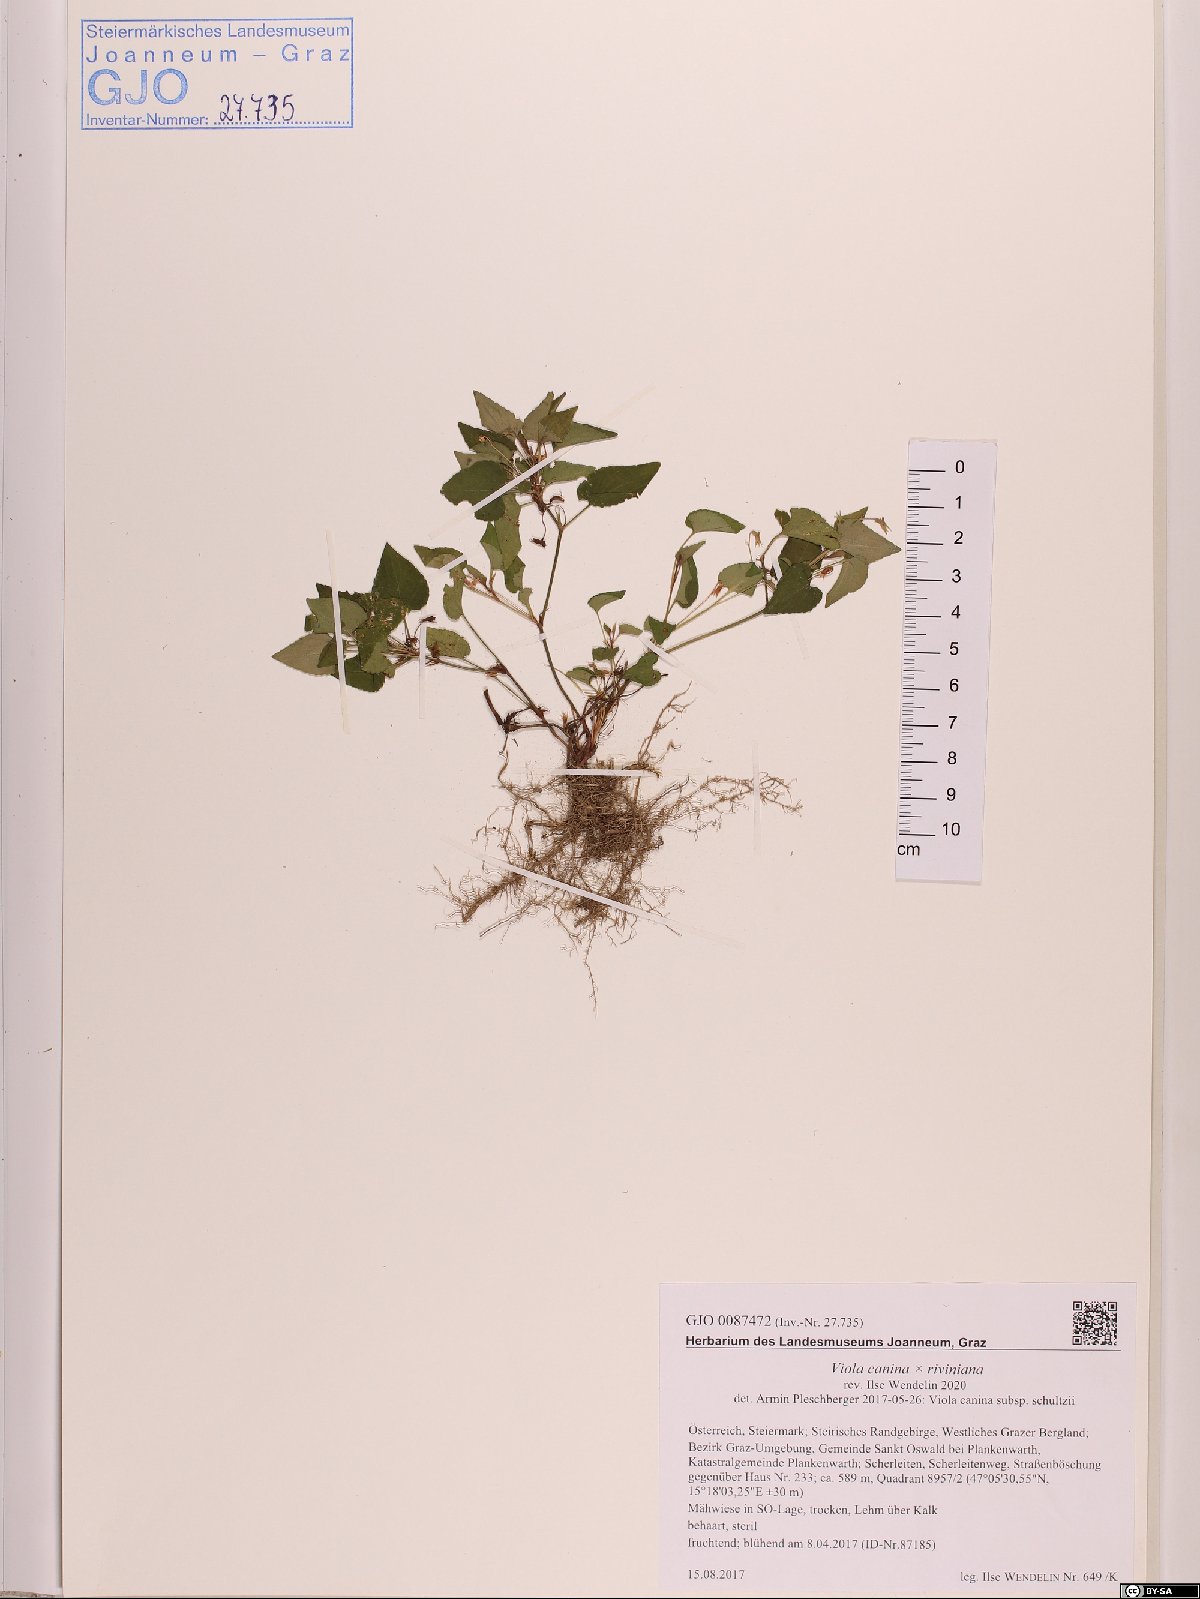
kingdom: Plantae
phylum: Tracheophyta
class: Magnoliopsida
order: Malpighiales
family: Violaceae
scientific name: Violaceae
